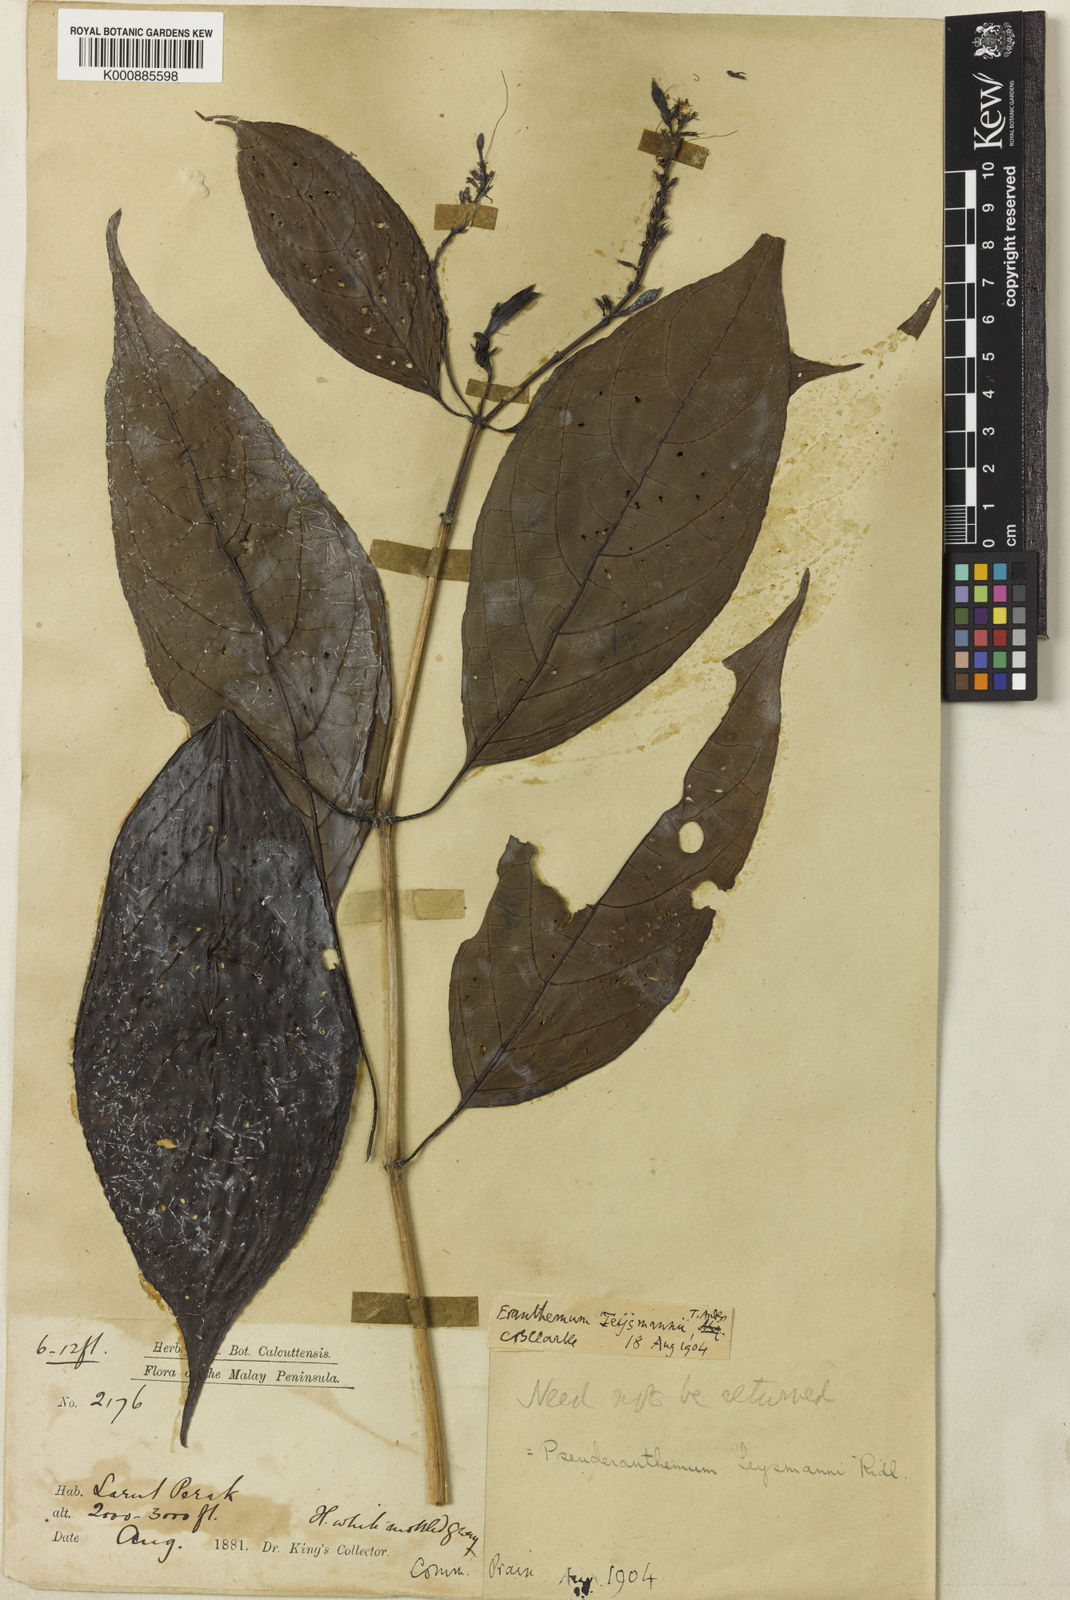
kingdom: Plantae
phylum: Tracheophyta
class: Magnoliopsida
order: Lamiales
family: Acanthaceae
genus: Pseuderanthemum
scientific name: Pseuderanthemum
